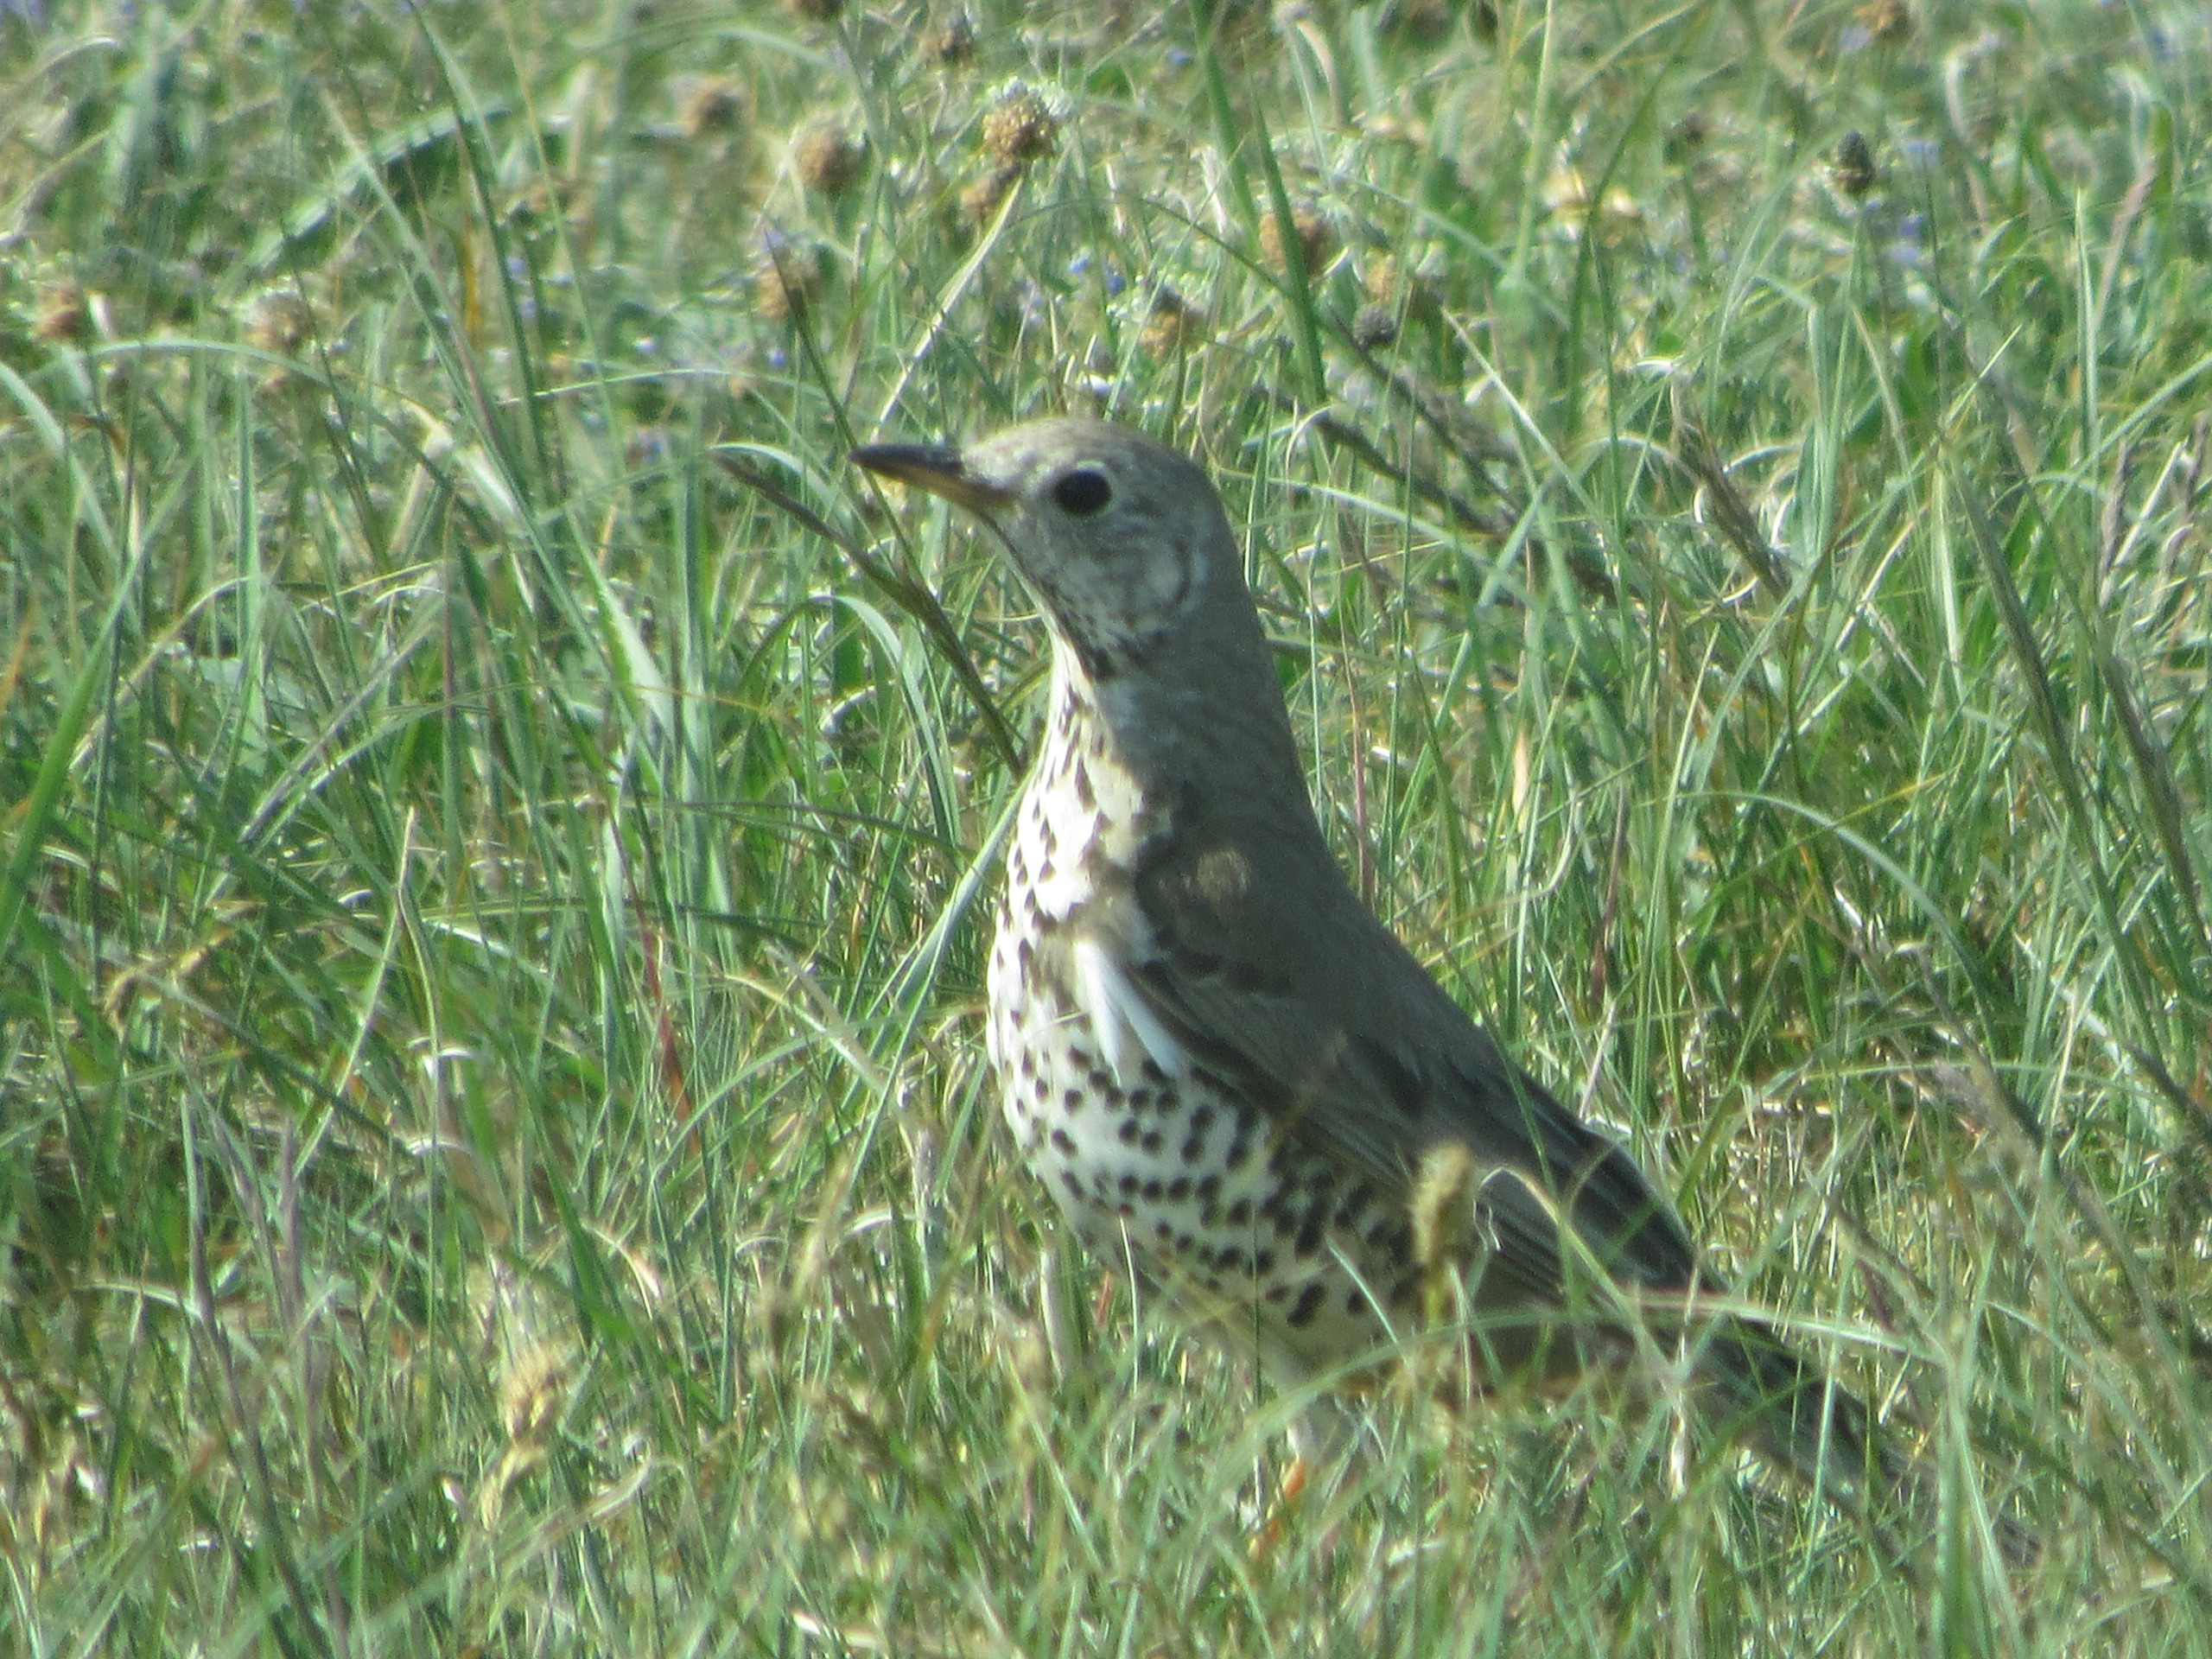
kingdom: Animalia
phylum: Chordata
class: Aves
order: Passeriformes
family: Turdidae
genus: Turdus
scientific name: Turdus viscivorus
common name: Misteldrossel
